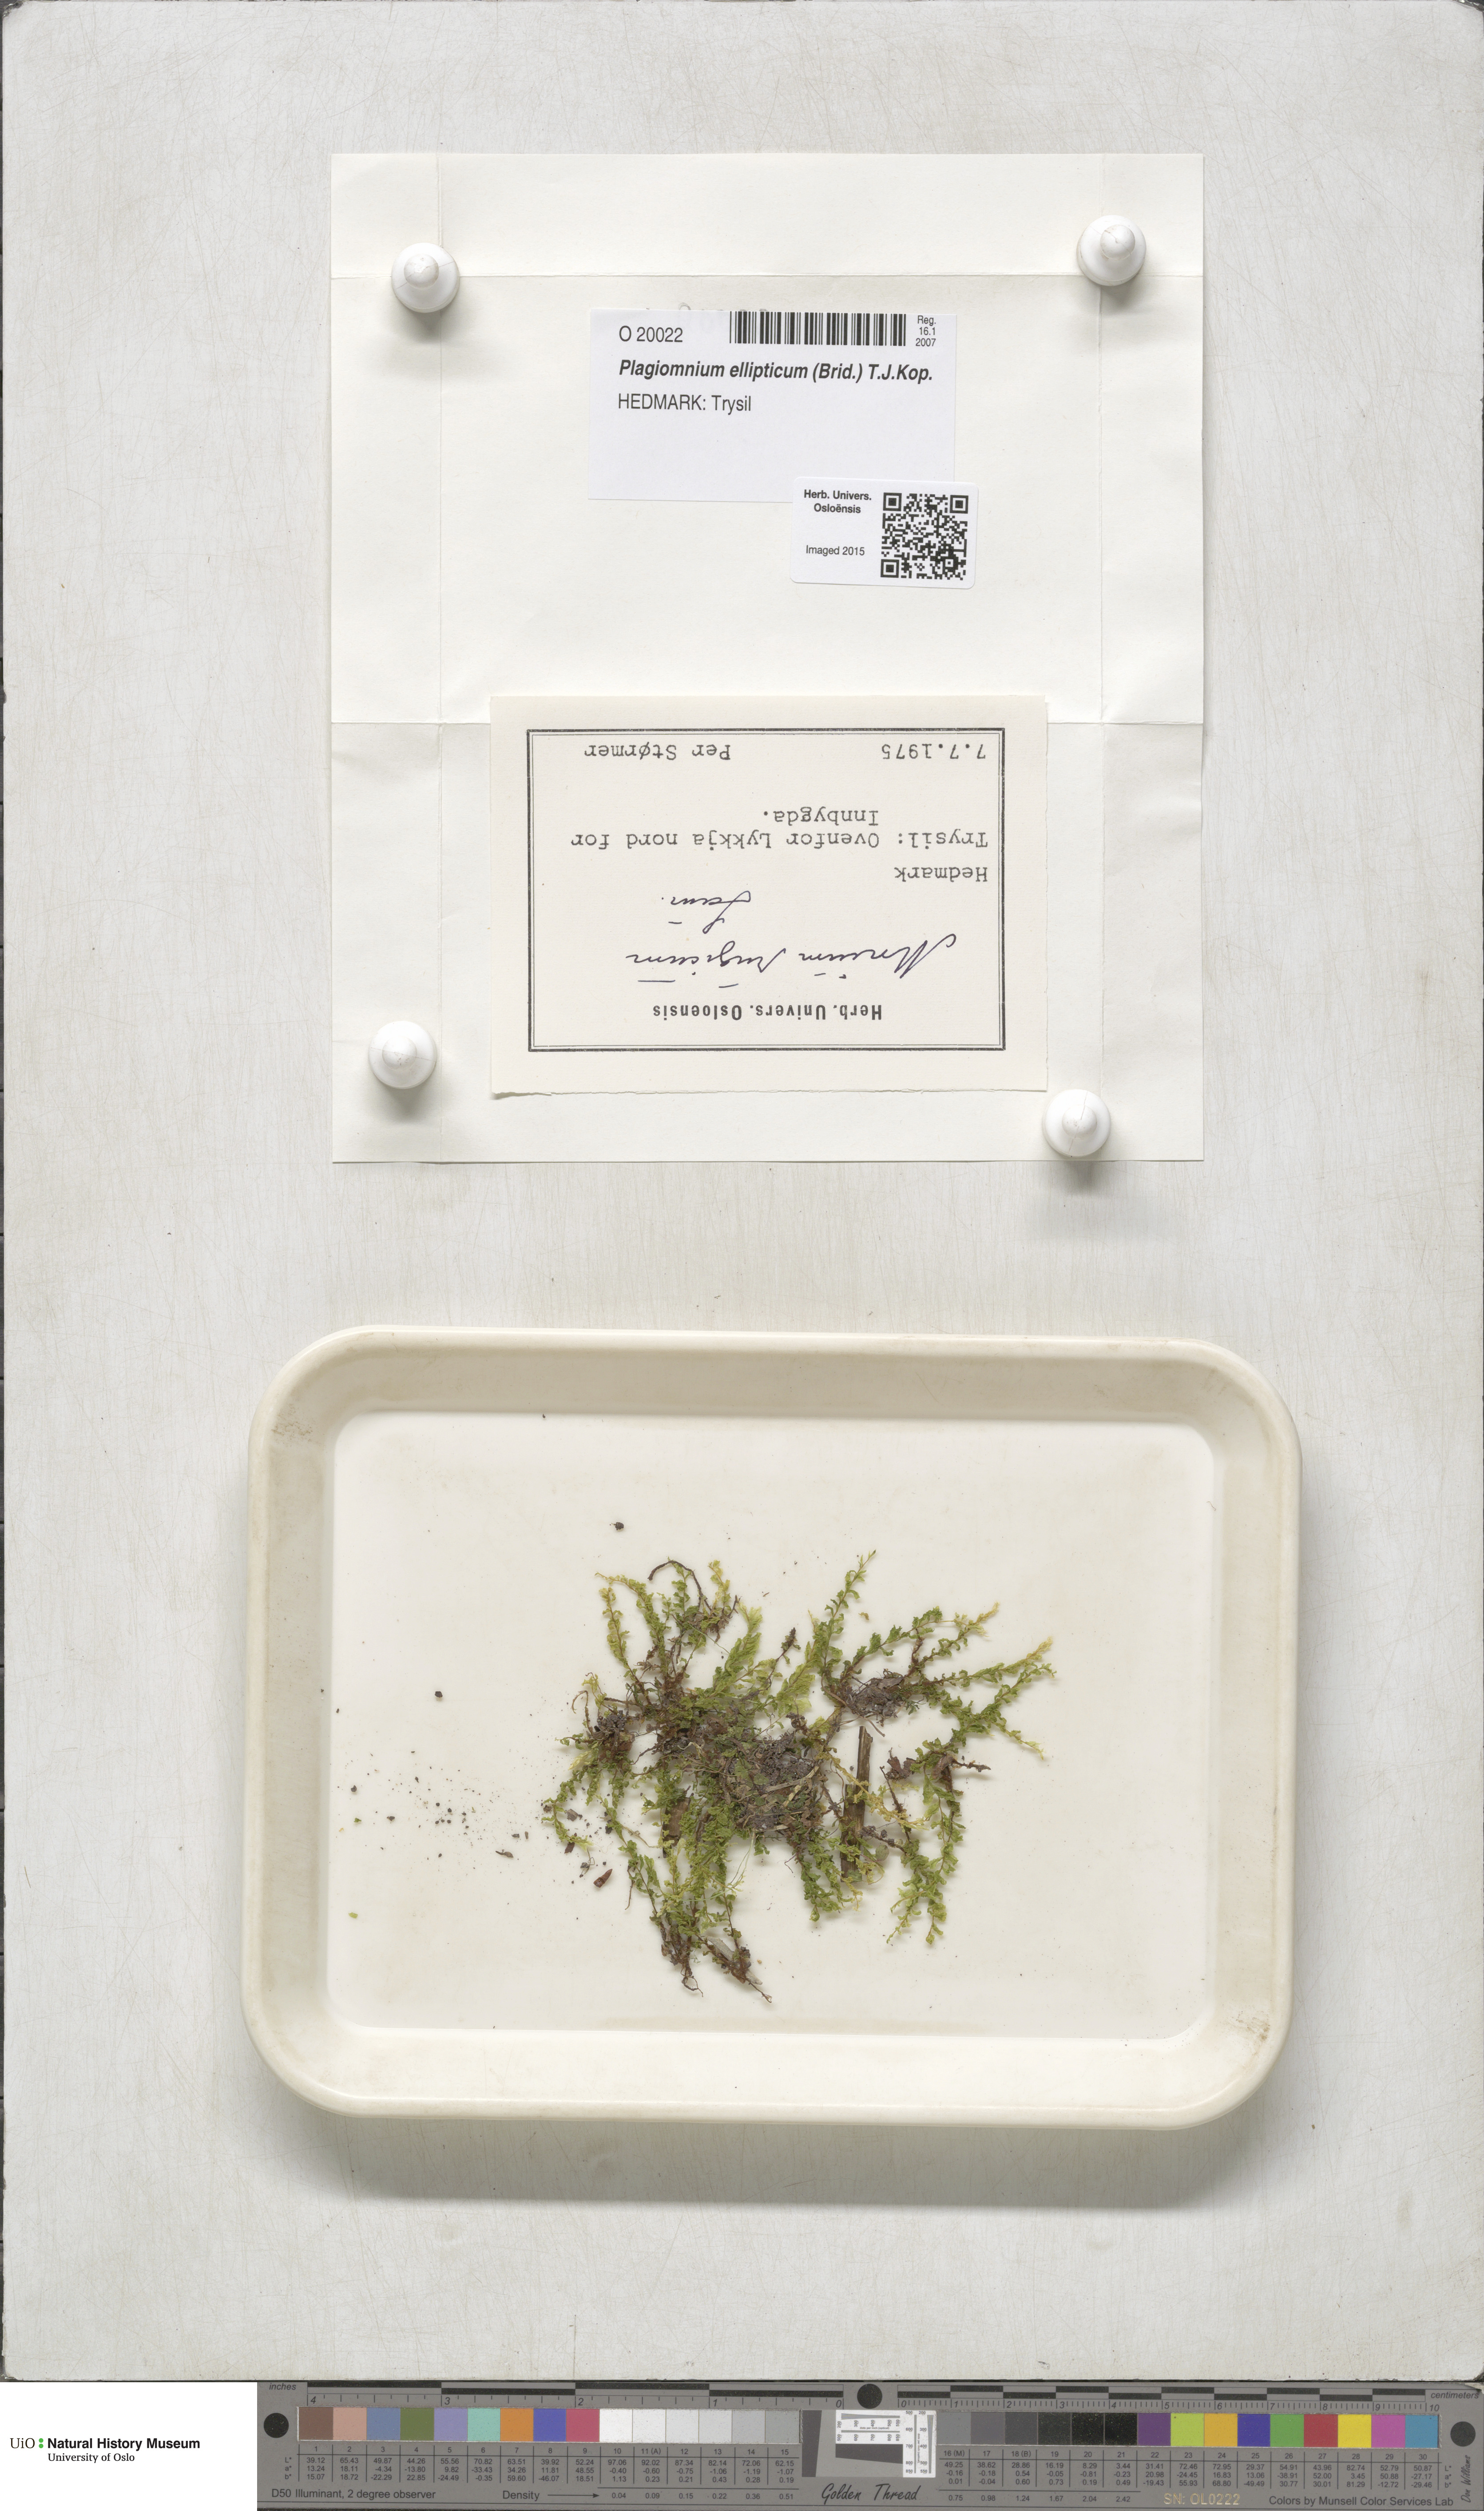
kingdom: Plantae
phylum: Bryophyta
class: Bryopsida
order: Bryales
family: Mniaceae
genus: Plagiomnium
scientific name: Plagiomnium ellipticum
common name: Marsh leafy moss
